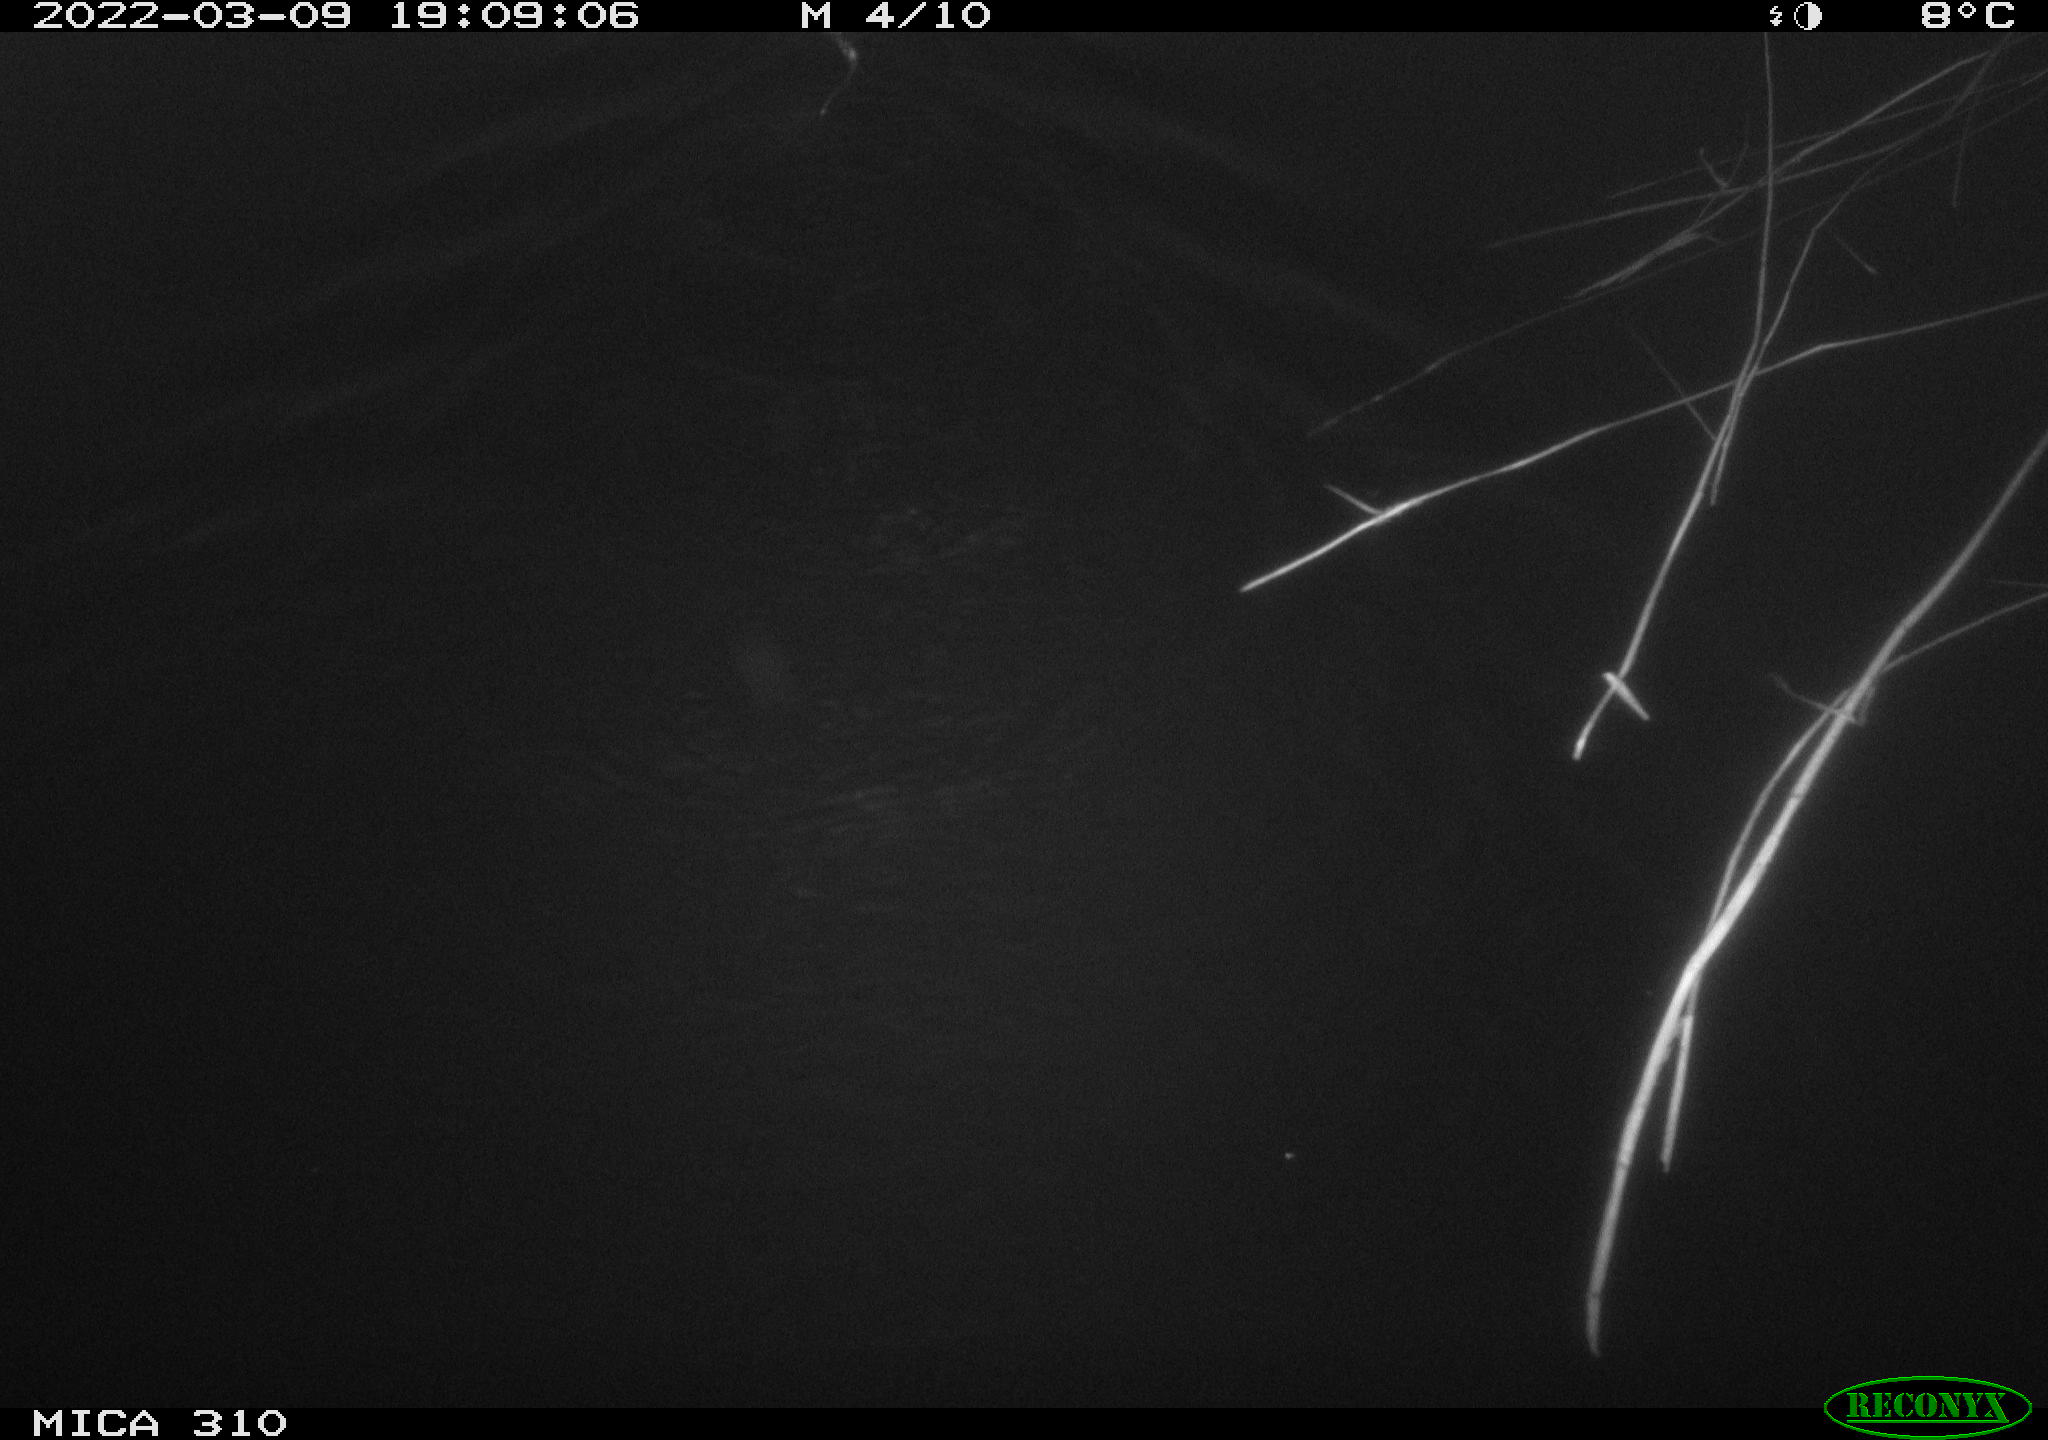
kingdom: Animalia
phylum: Chordata
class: Mammalia
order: Rodentia
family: Cricetidae
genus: Ondatra
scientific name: Ondatra zibethicus
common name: Muskrat
